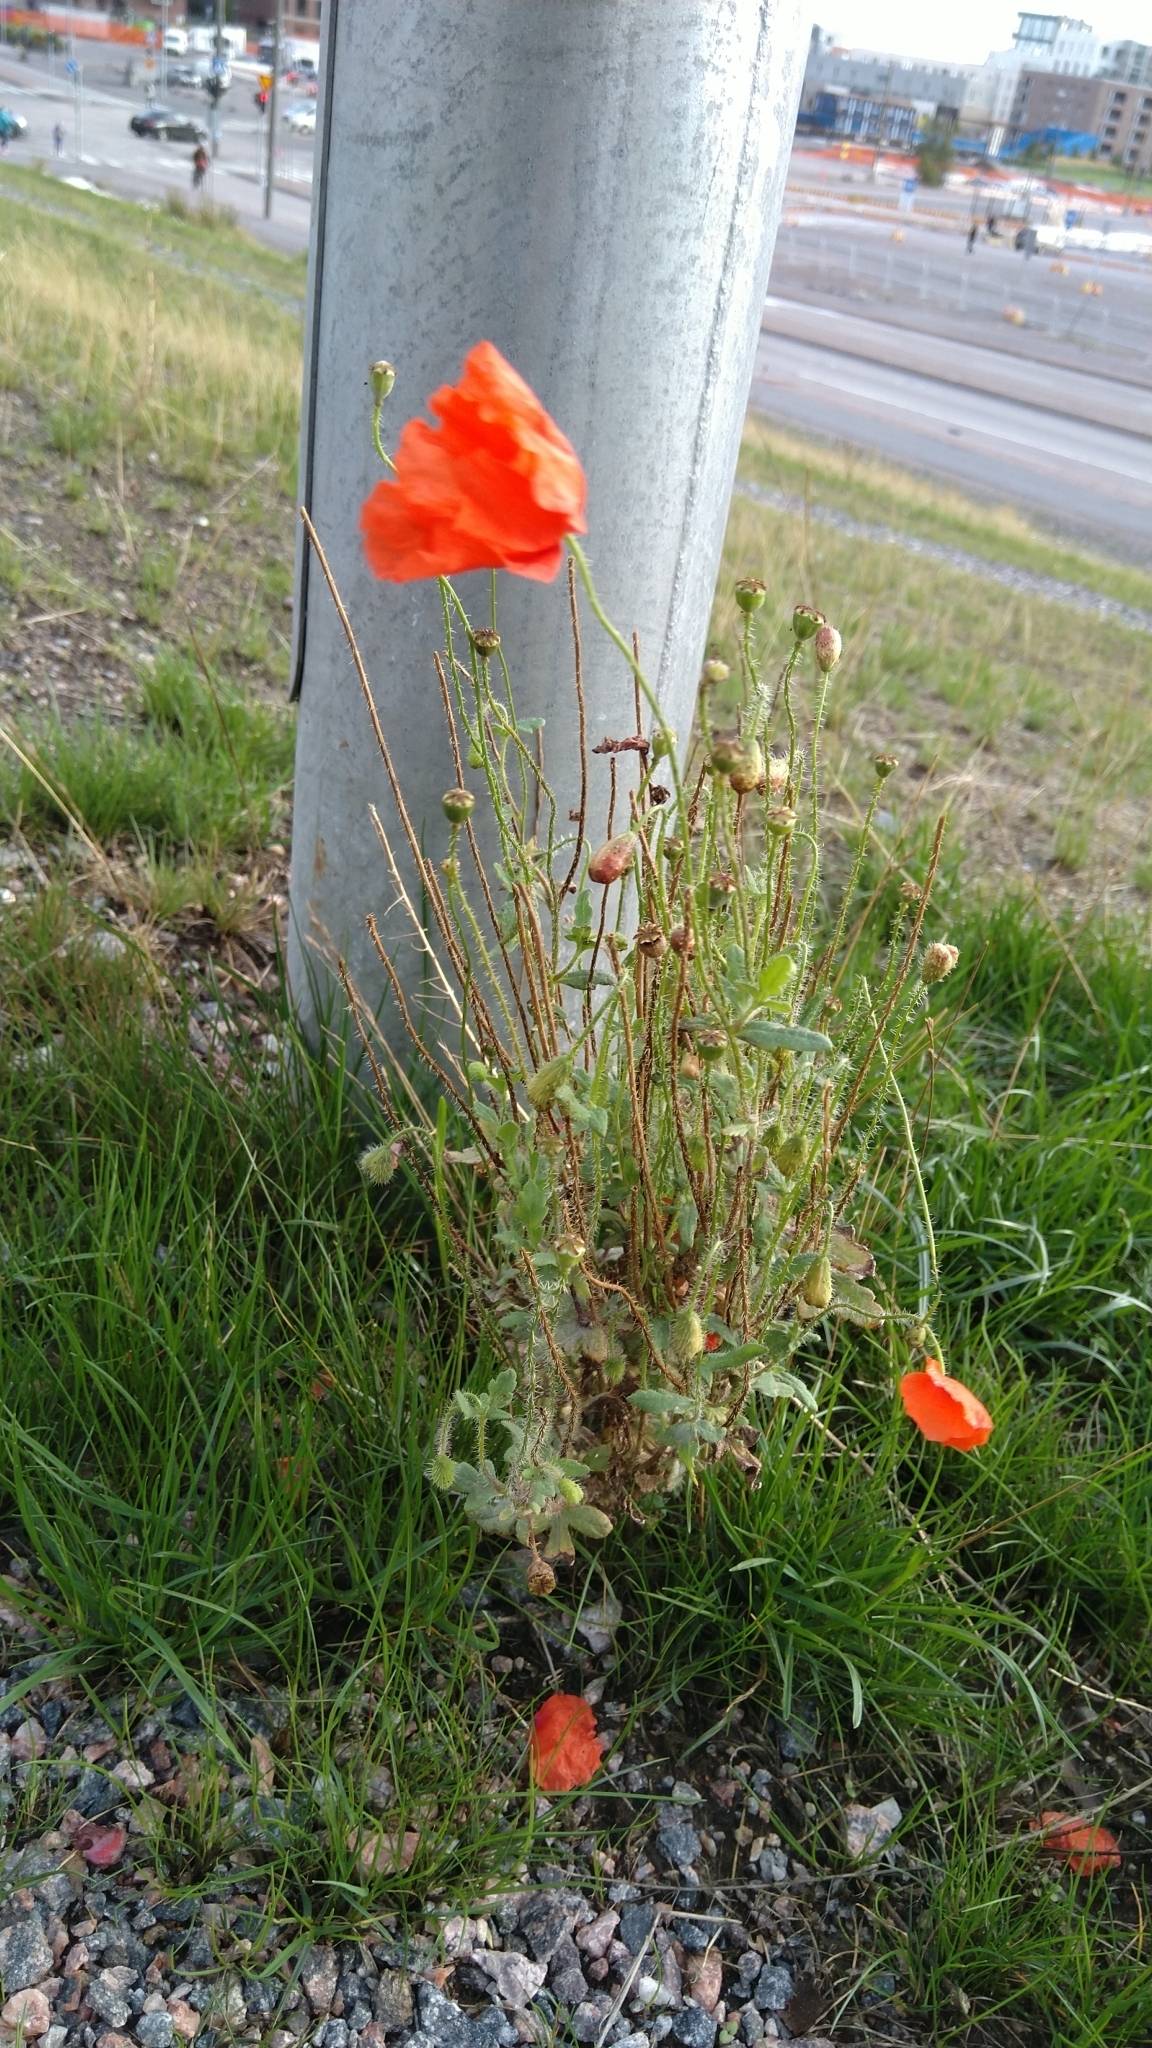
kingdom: Plantae
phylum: Tracheophyta
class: Magnoliopsida
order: Ranunculales
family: Papaveraceae
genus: Papaver
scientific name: Papaver rhoeas
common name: Corn poppy
